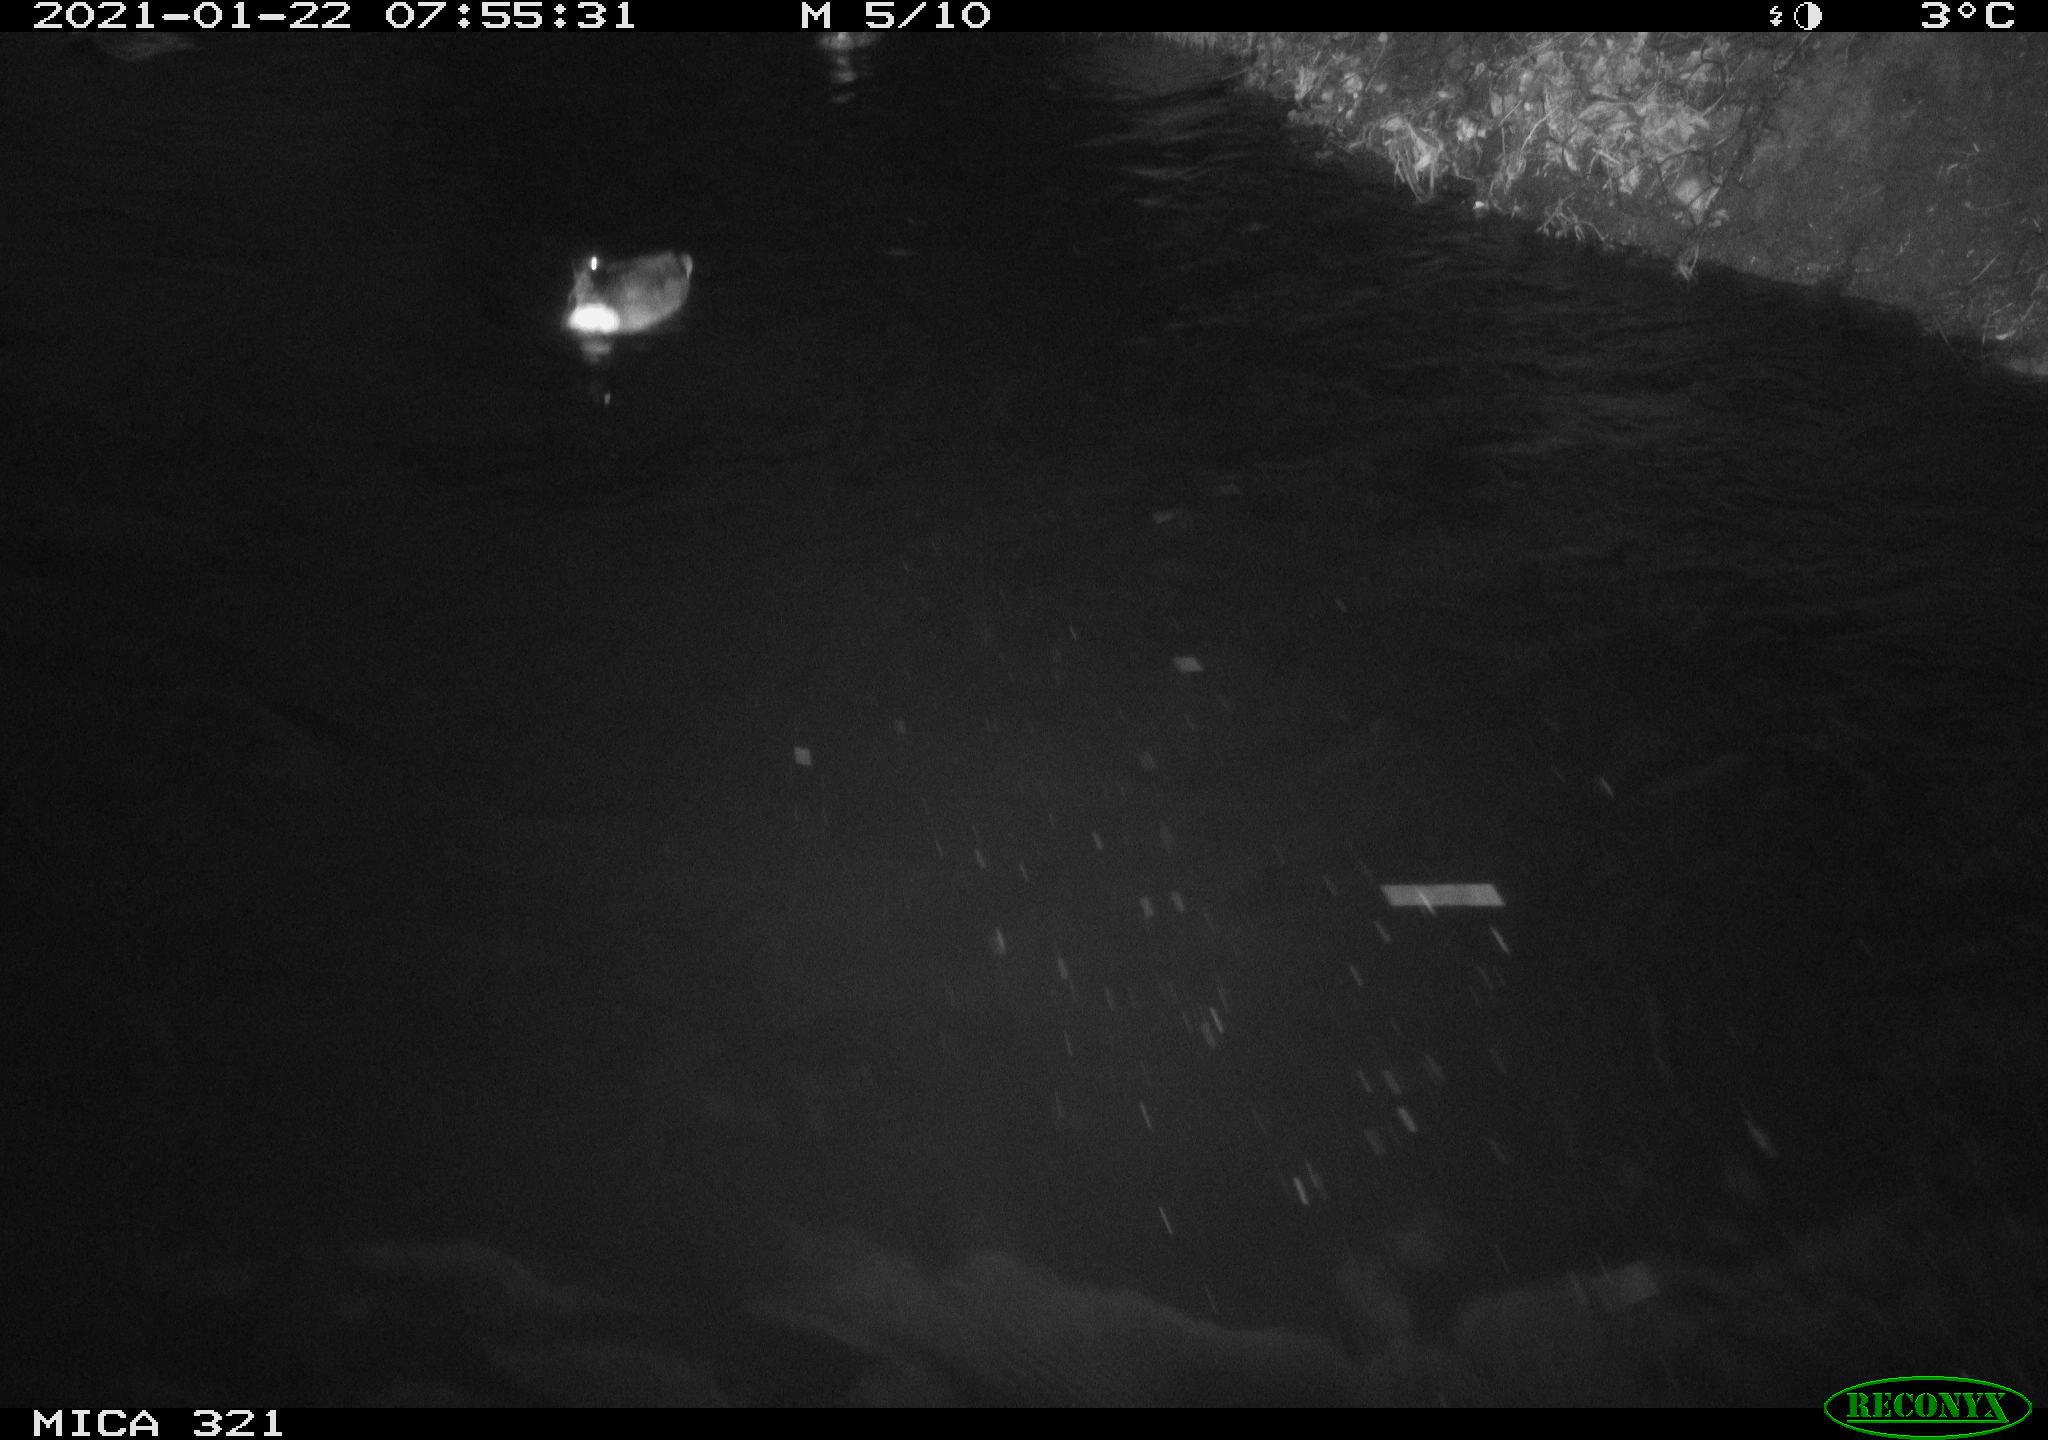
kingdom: Animalia
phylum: Chordata
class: Aves
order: Anseriformes
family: Anatidae
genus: Anas
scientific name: Anas platyrhynchos
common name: Mallard
